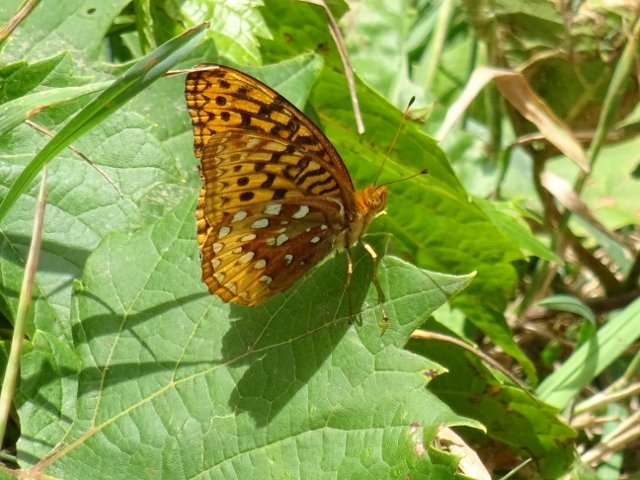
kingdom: Animalia
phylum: Arthropoda
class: Insecta
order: Lepidoptera
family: Nymphalidae
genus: Speyeria
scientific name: Speyeria cybele
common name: Great Spangled Fritillary
